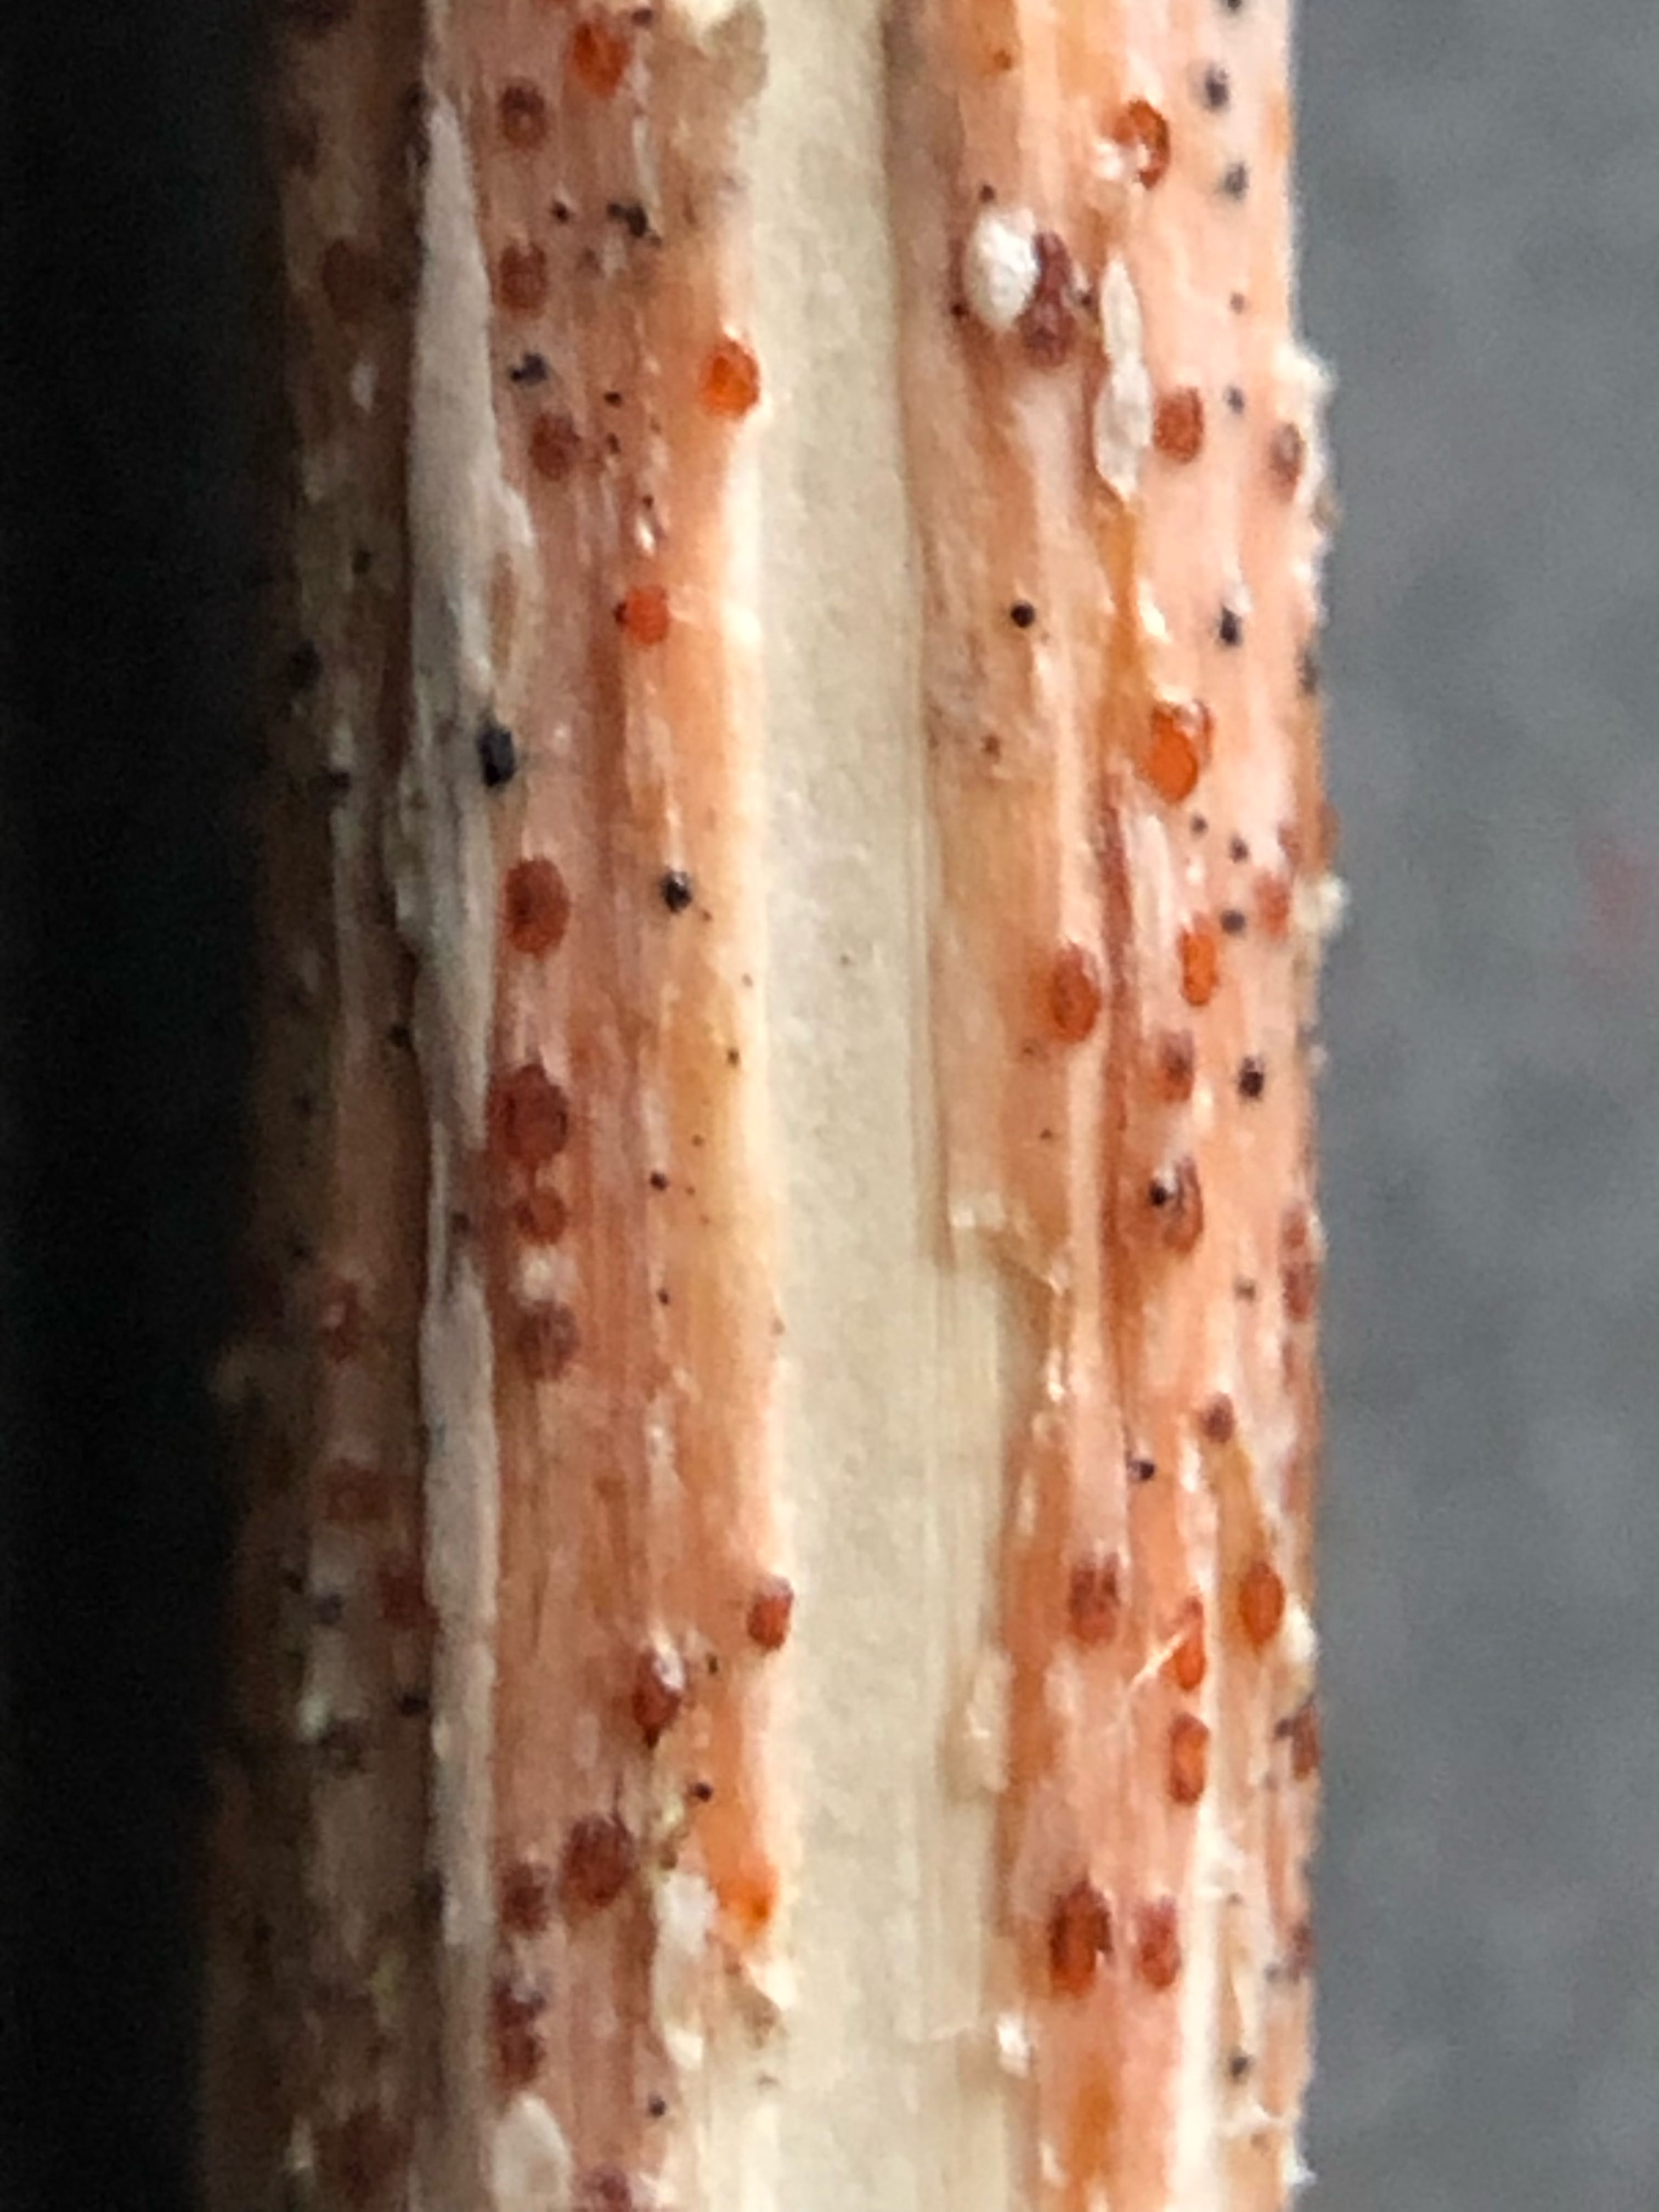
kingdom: Fungi
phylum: Ascomycota
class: Leotiomycetes
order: Helotiales
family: Calloriaceae
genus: Calloria
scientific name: Calloria urticae
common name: nælde-orangeskive
